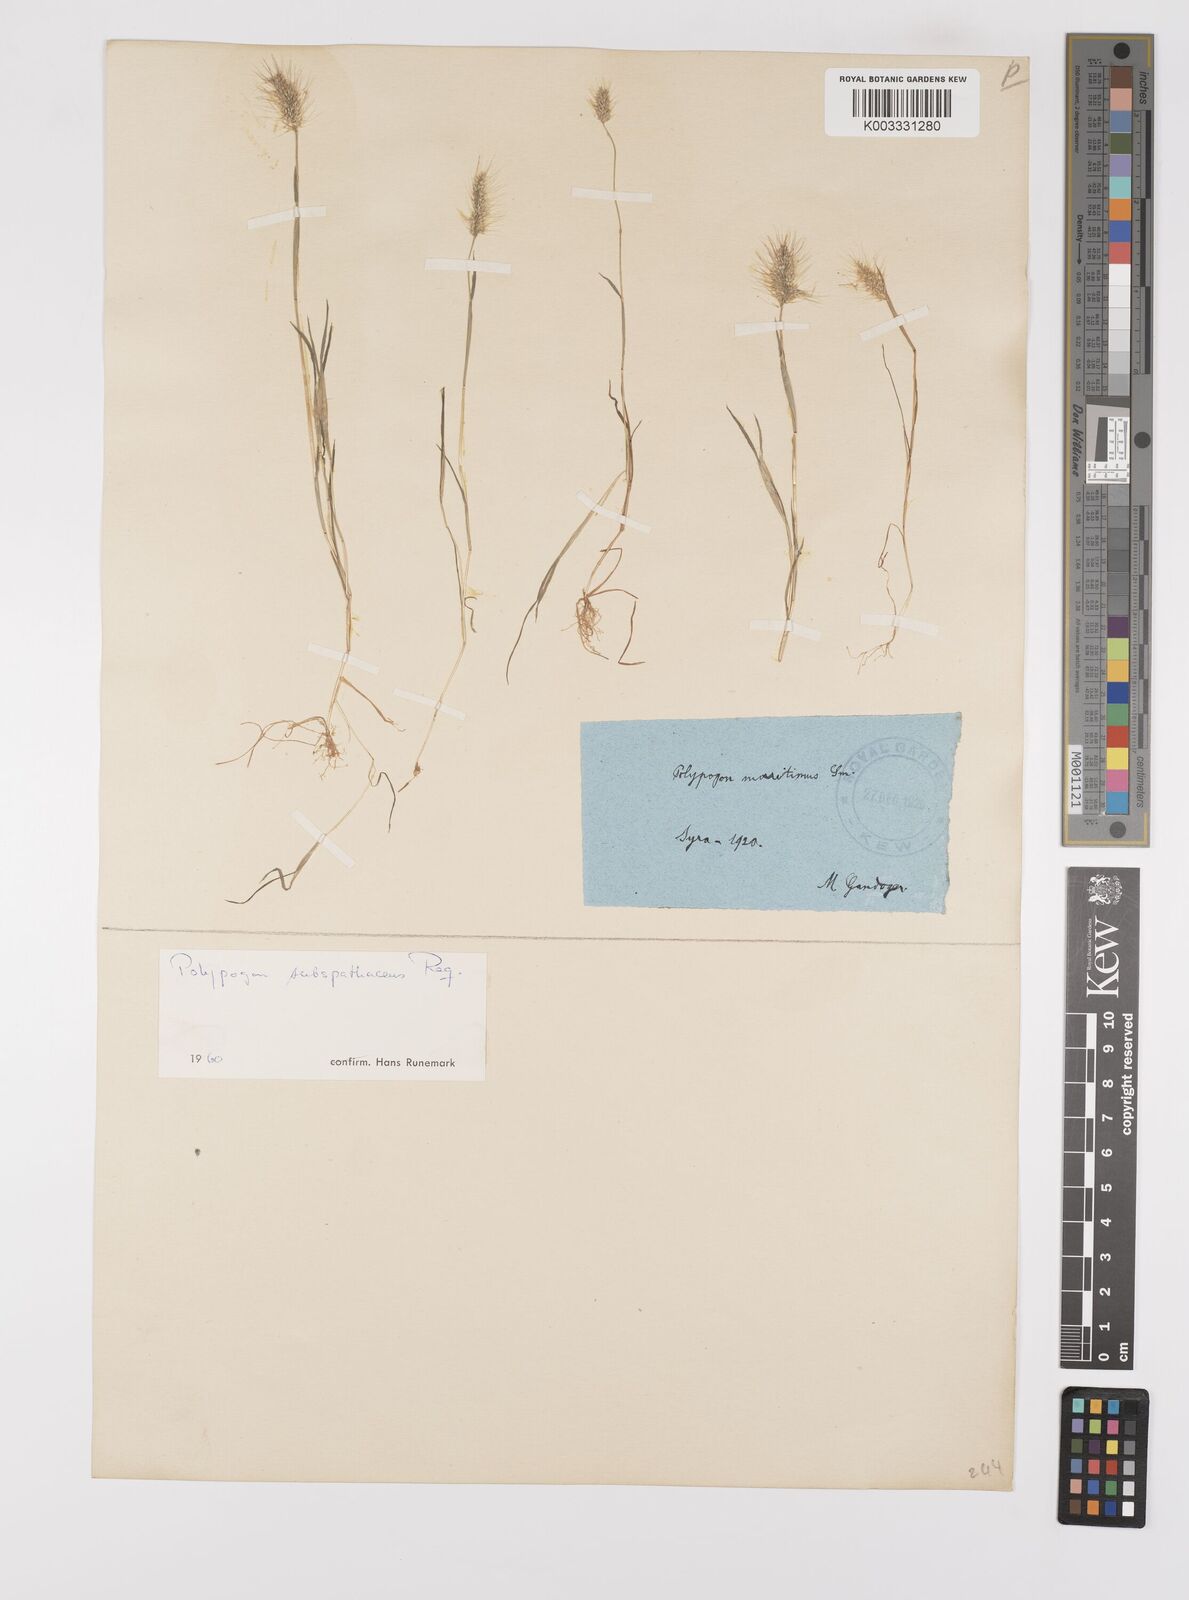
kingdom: Plantae
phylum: Tracheophyta
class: Liliopsida
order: Poales
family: Poaceae
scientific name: Poaceae
